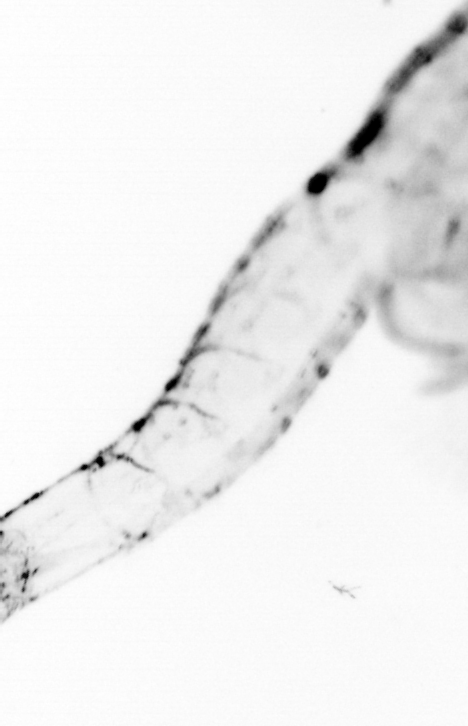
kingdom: Animalia
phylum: Chordata
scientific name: Chordata
